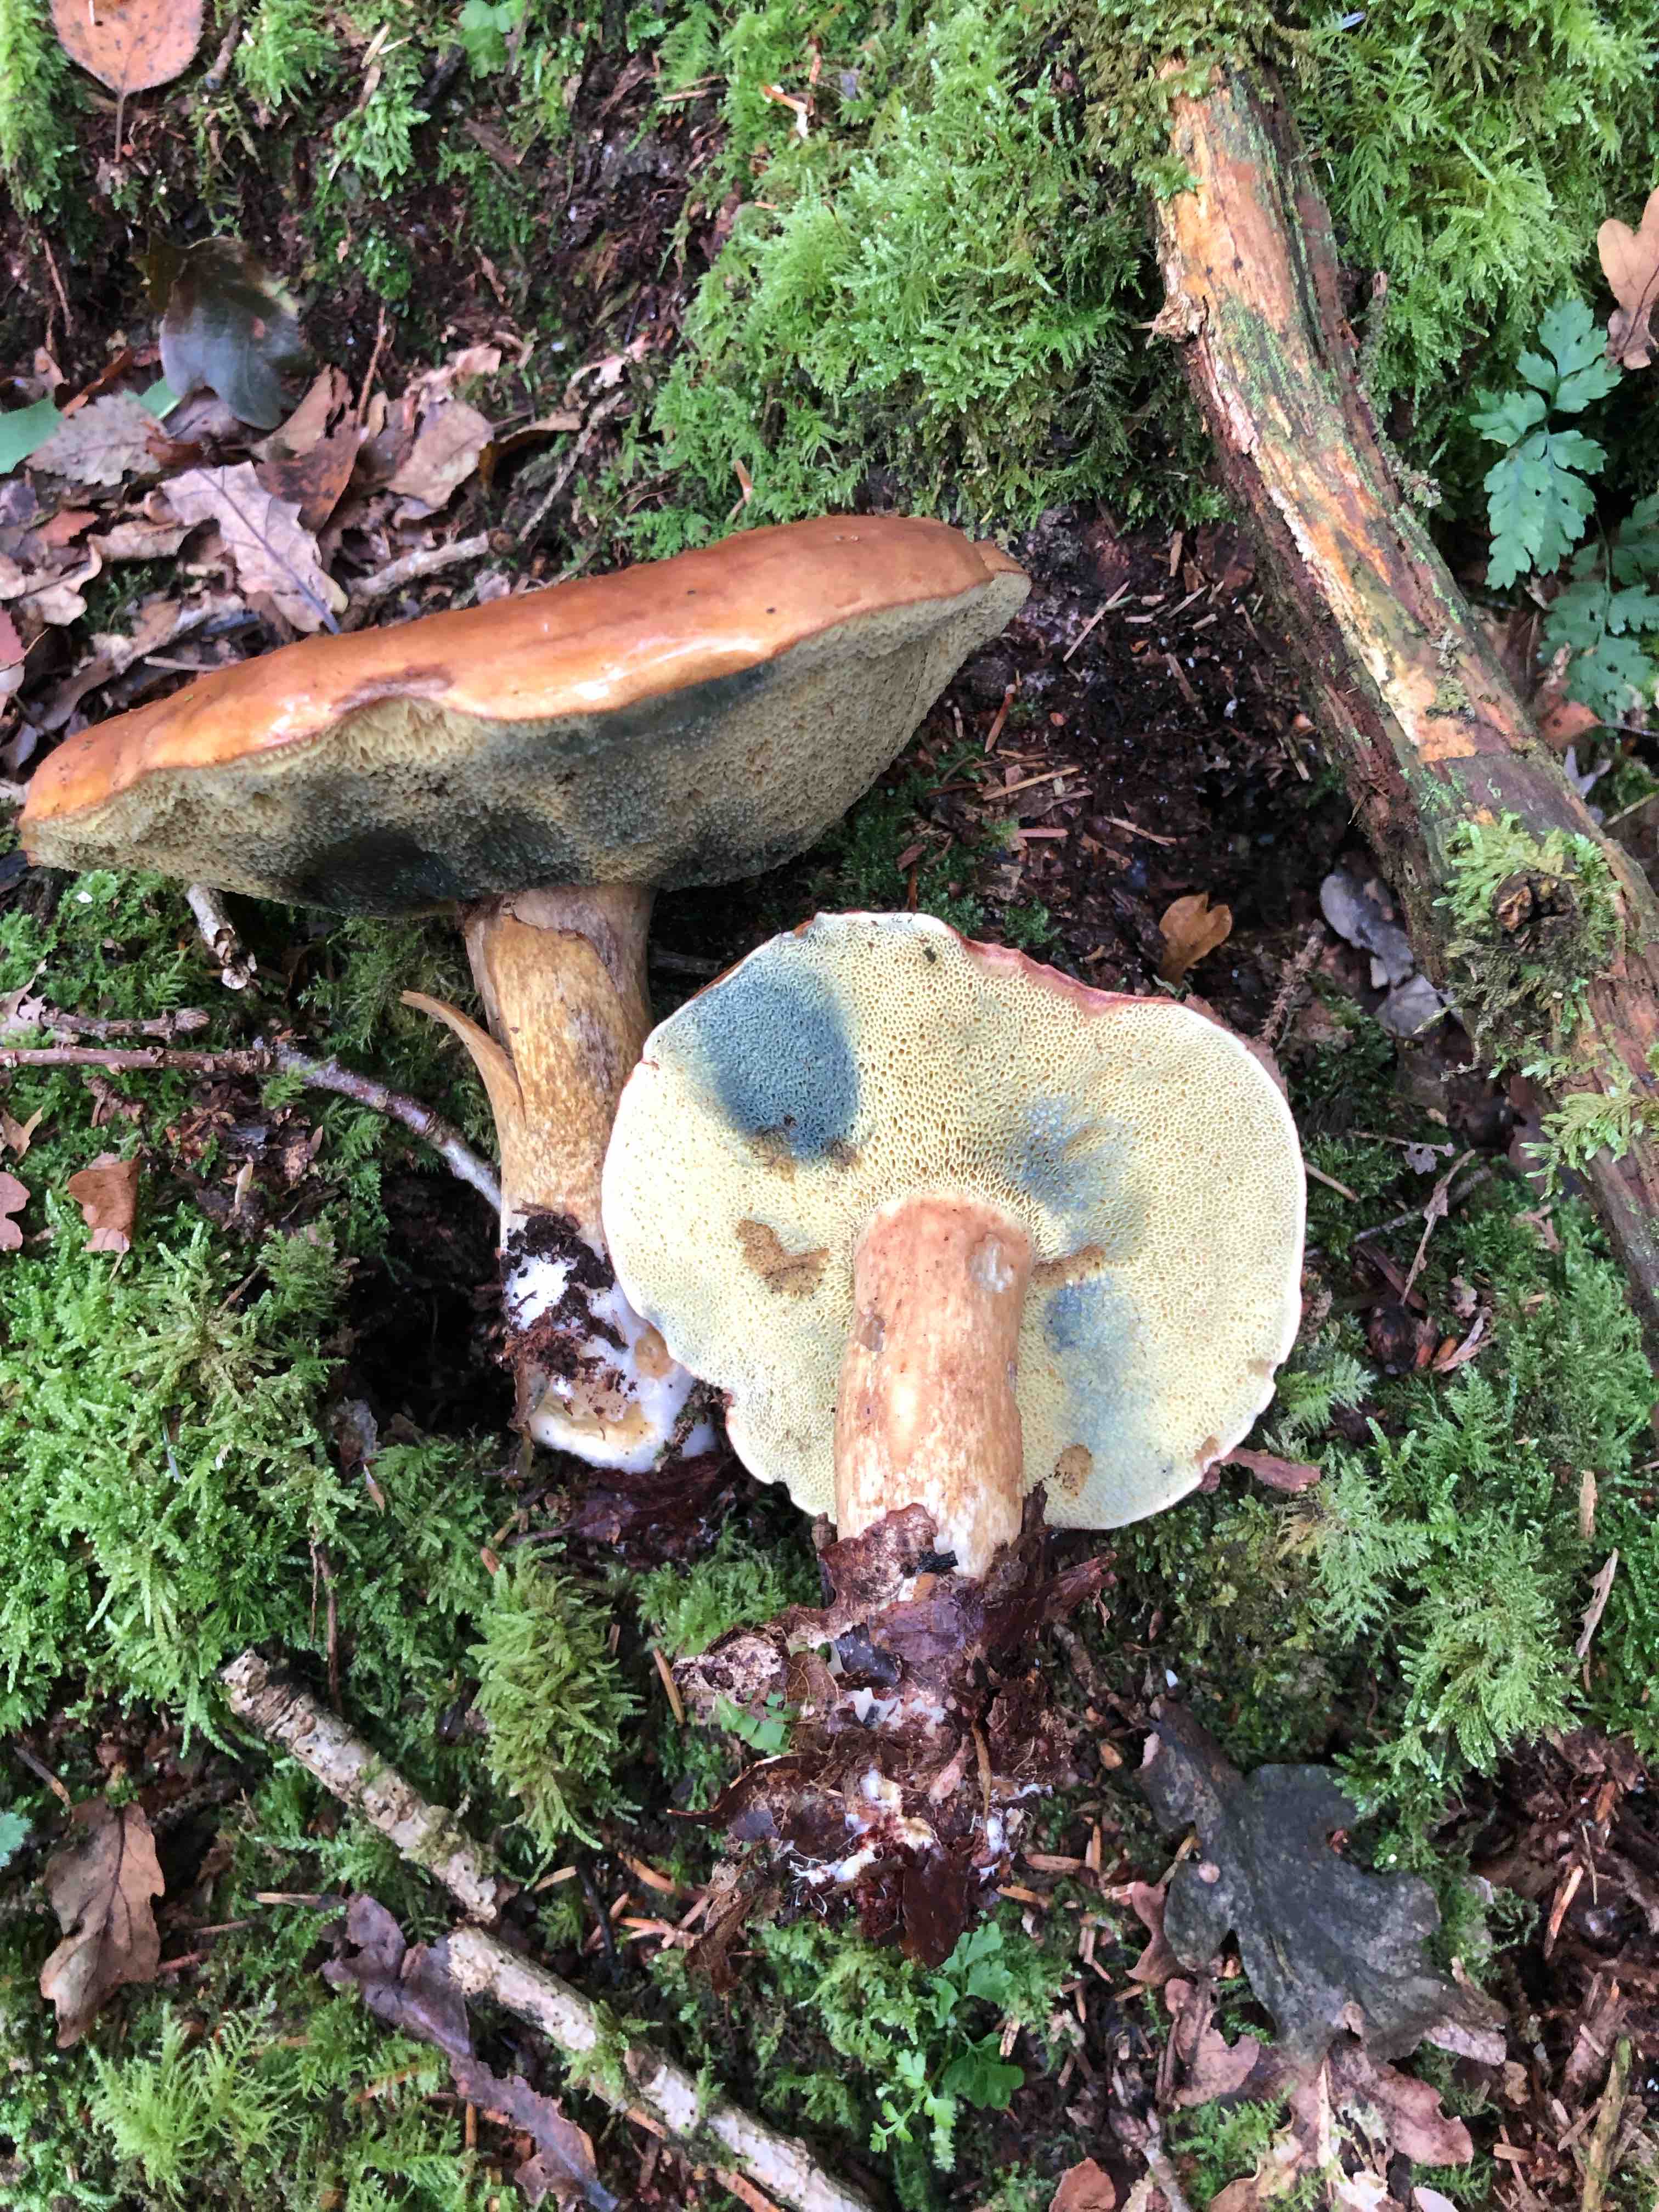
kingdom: Fungi
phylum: Basidiomycota
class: Agaricomycetes
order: Boletales
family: Boletaceae
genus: Imleria
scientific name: Imleria badia
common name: brunstokket rørhat
